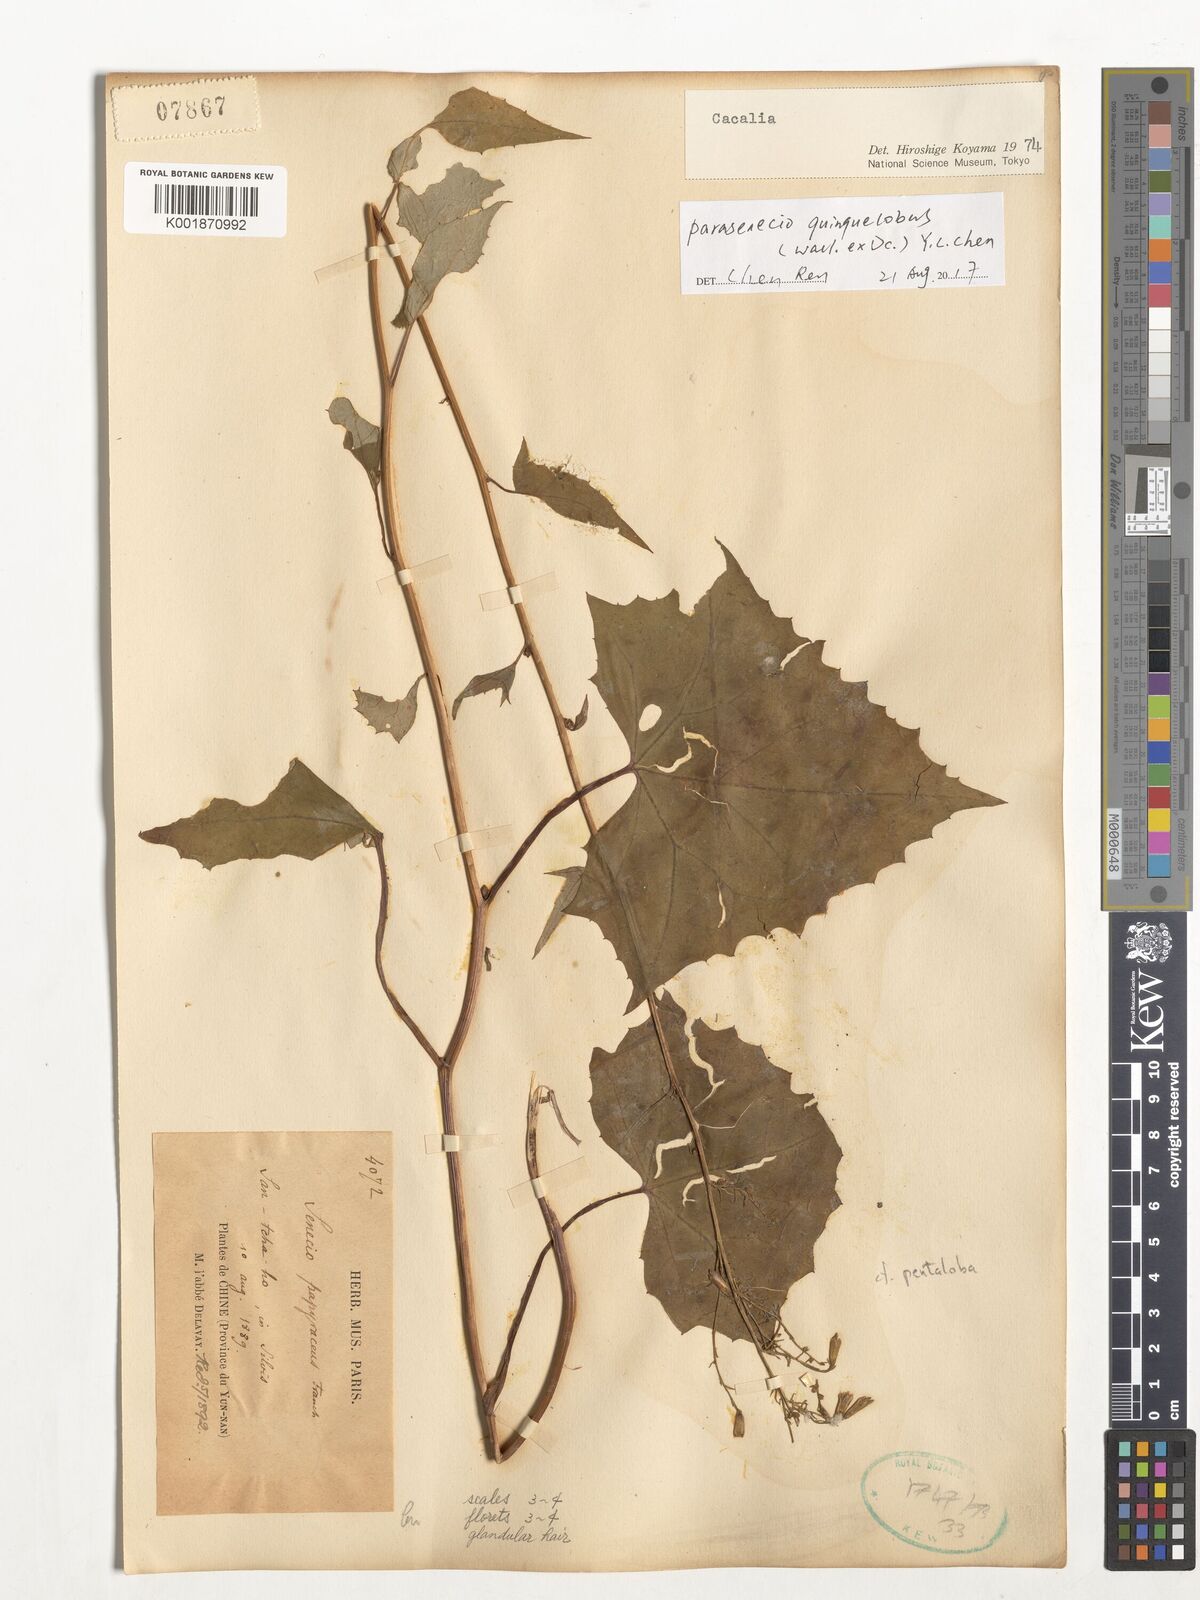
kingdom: Plantae
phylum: Tracheophyta
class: Magnoliopsida
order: Asterales
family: Asteraceae
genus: Parasenecio
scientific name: Parasenecio quinquelobus
